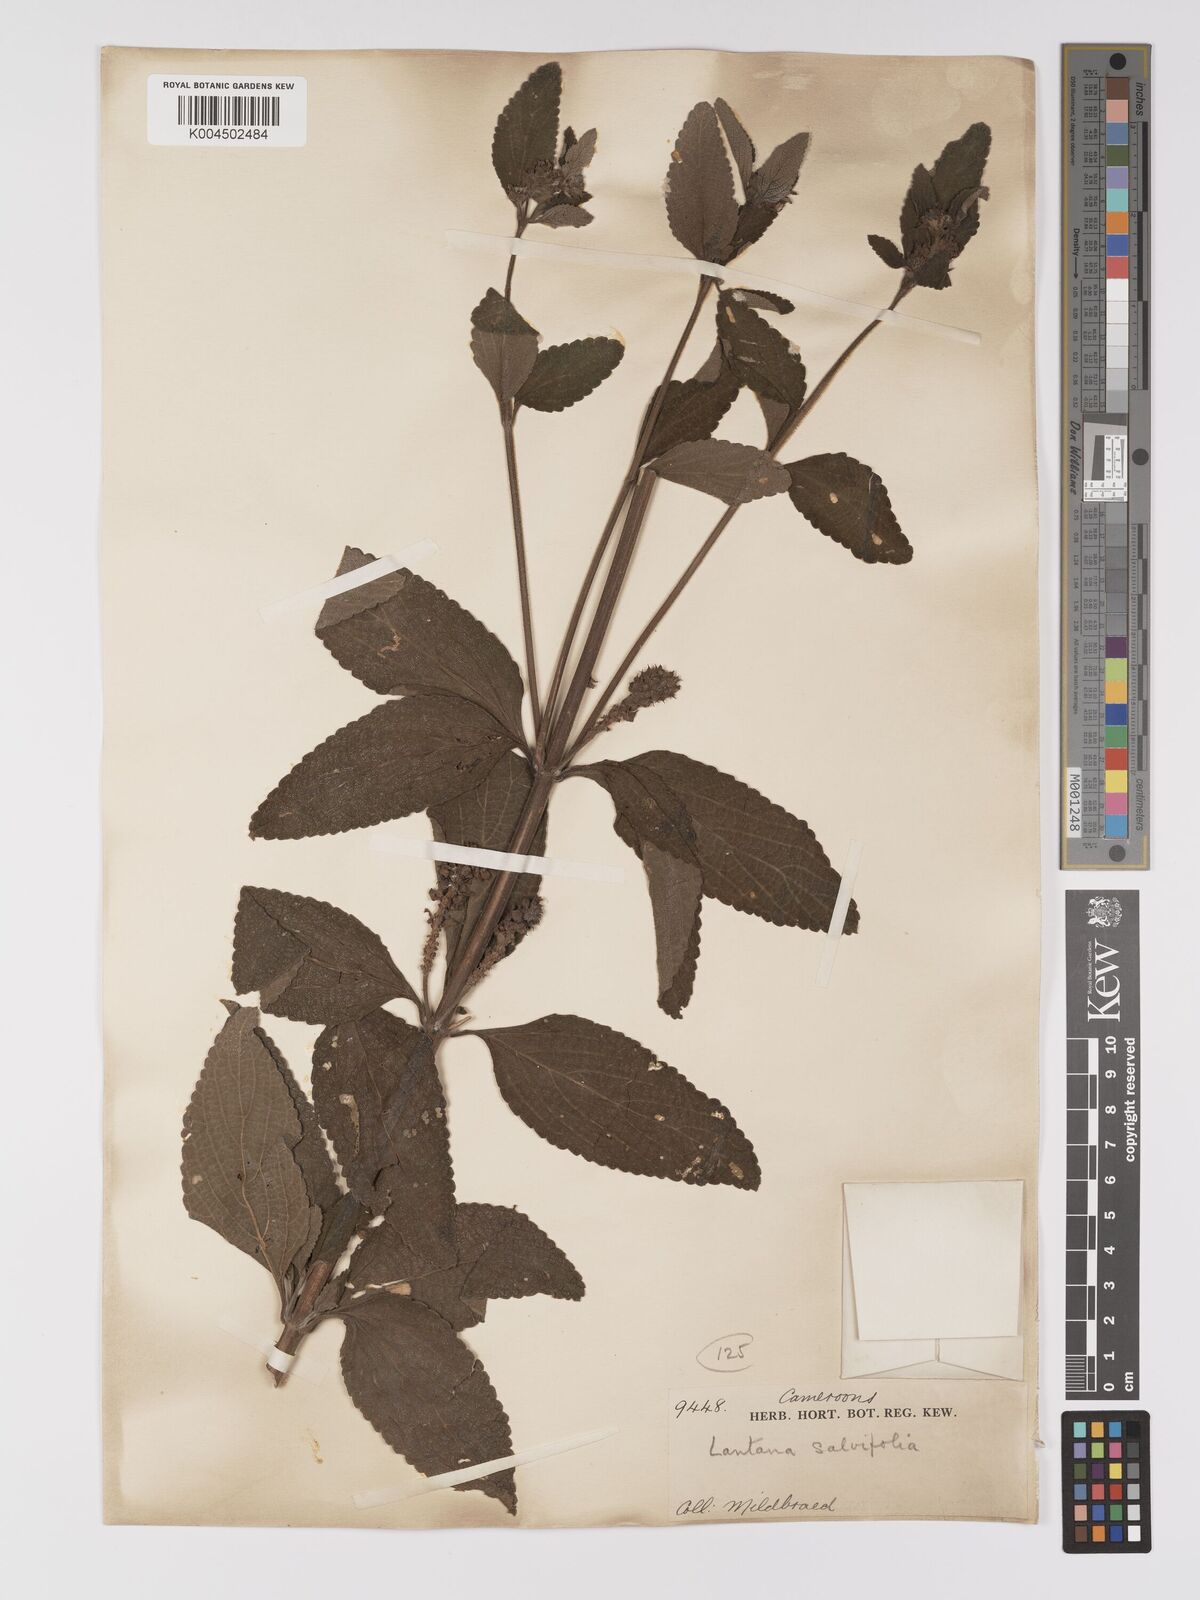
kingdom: Plantae
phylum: Tracheophyta
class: Magnoliopsida
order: Lamiales
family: Verbenaceae
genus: Lantana
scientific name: Lantana ukambensis
